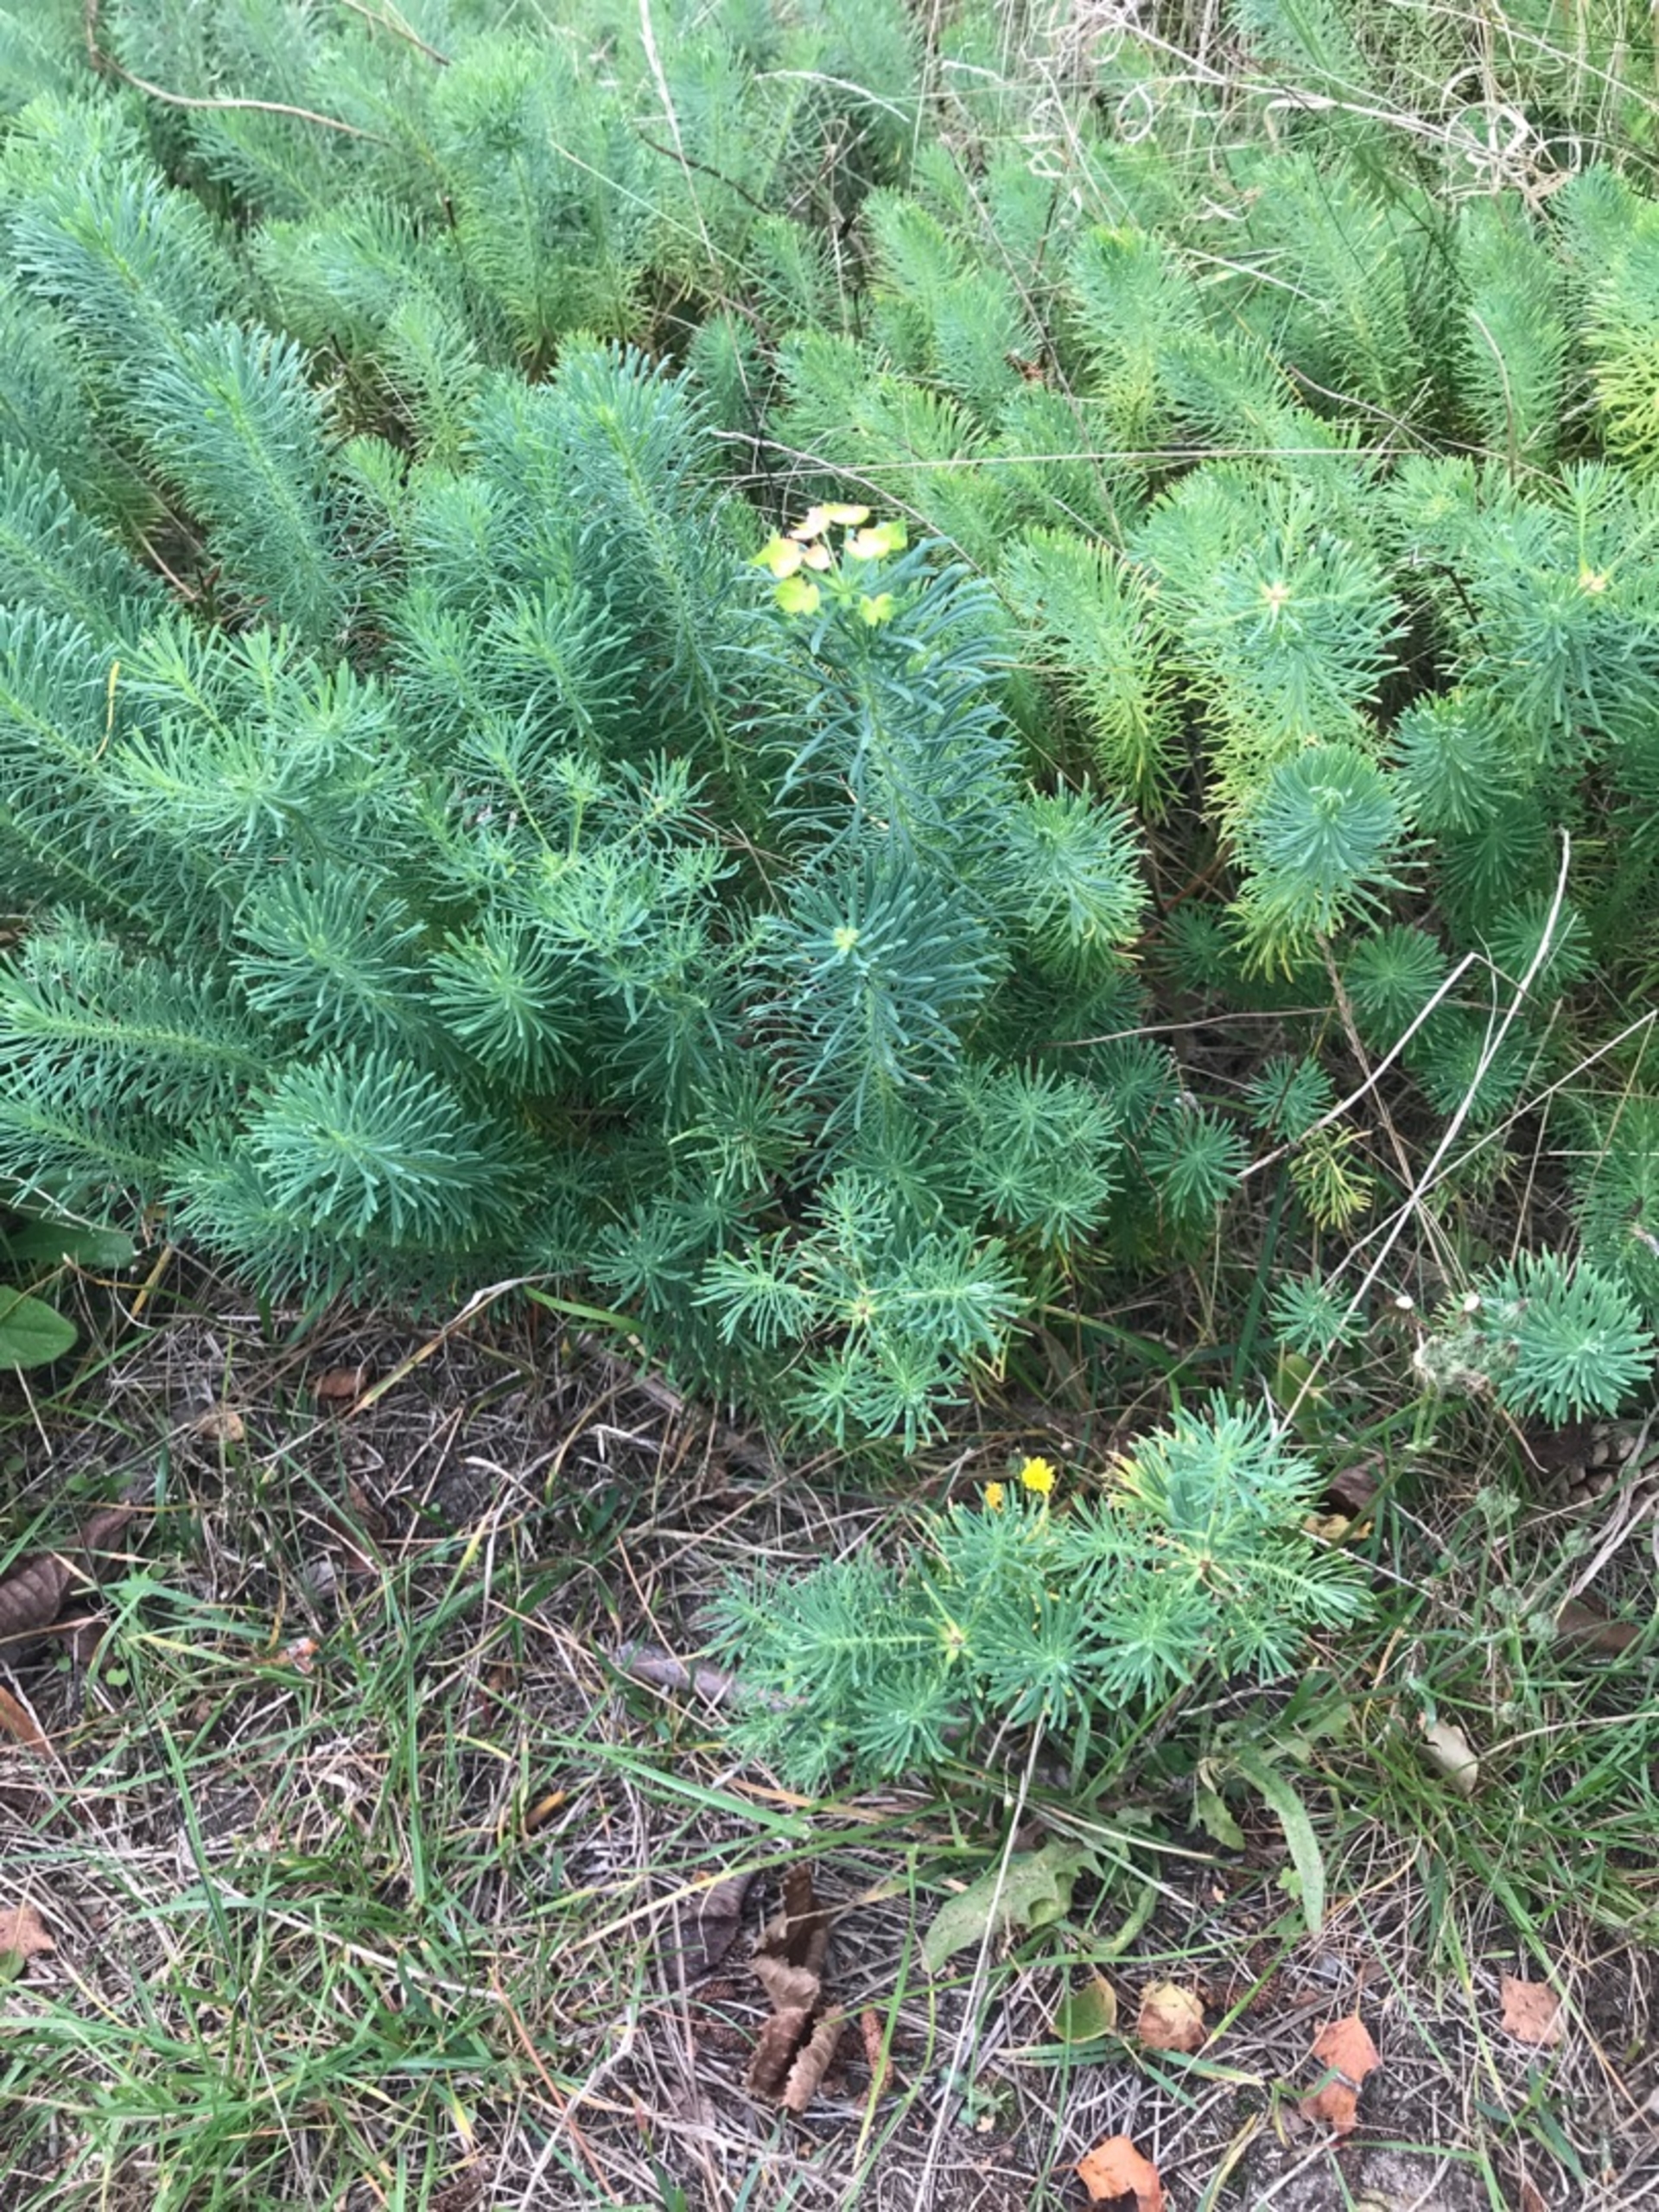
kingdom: Plantae
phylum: Tracheophyta
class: Magnoliopsida
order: Malpighiales
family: Euphorbiaceae
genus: Euphorbia
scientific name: Euphorbia cyparissias
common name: Cypres-vortemælk
